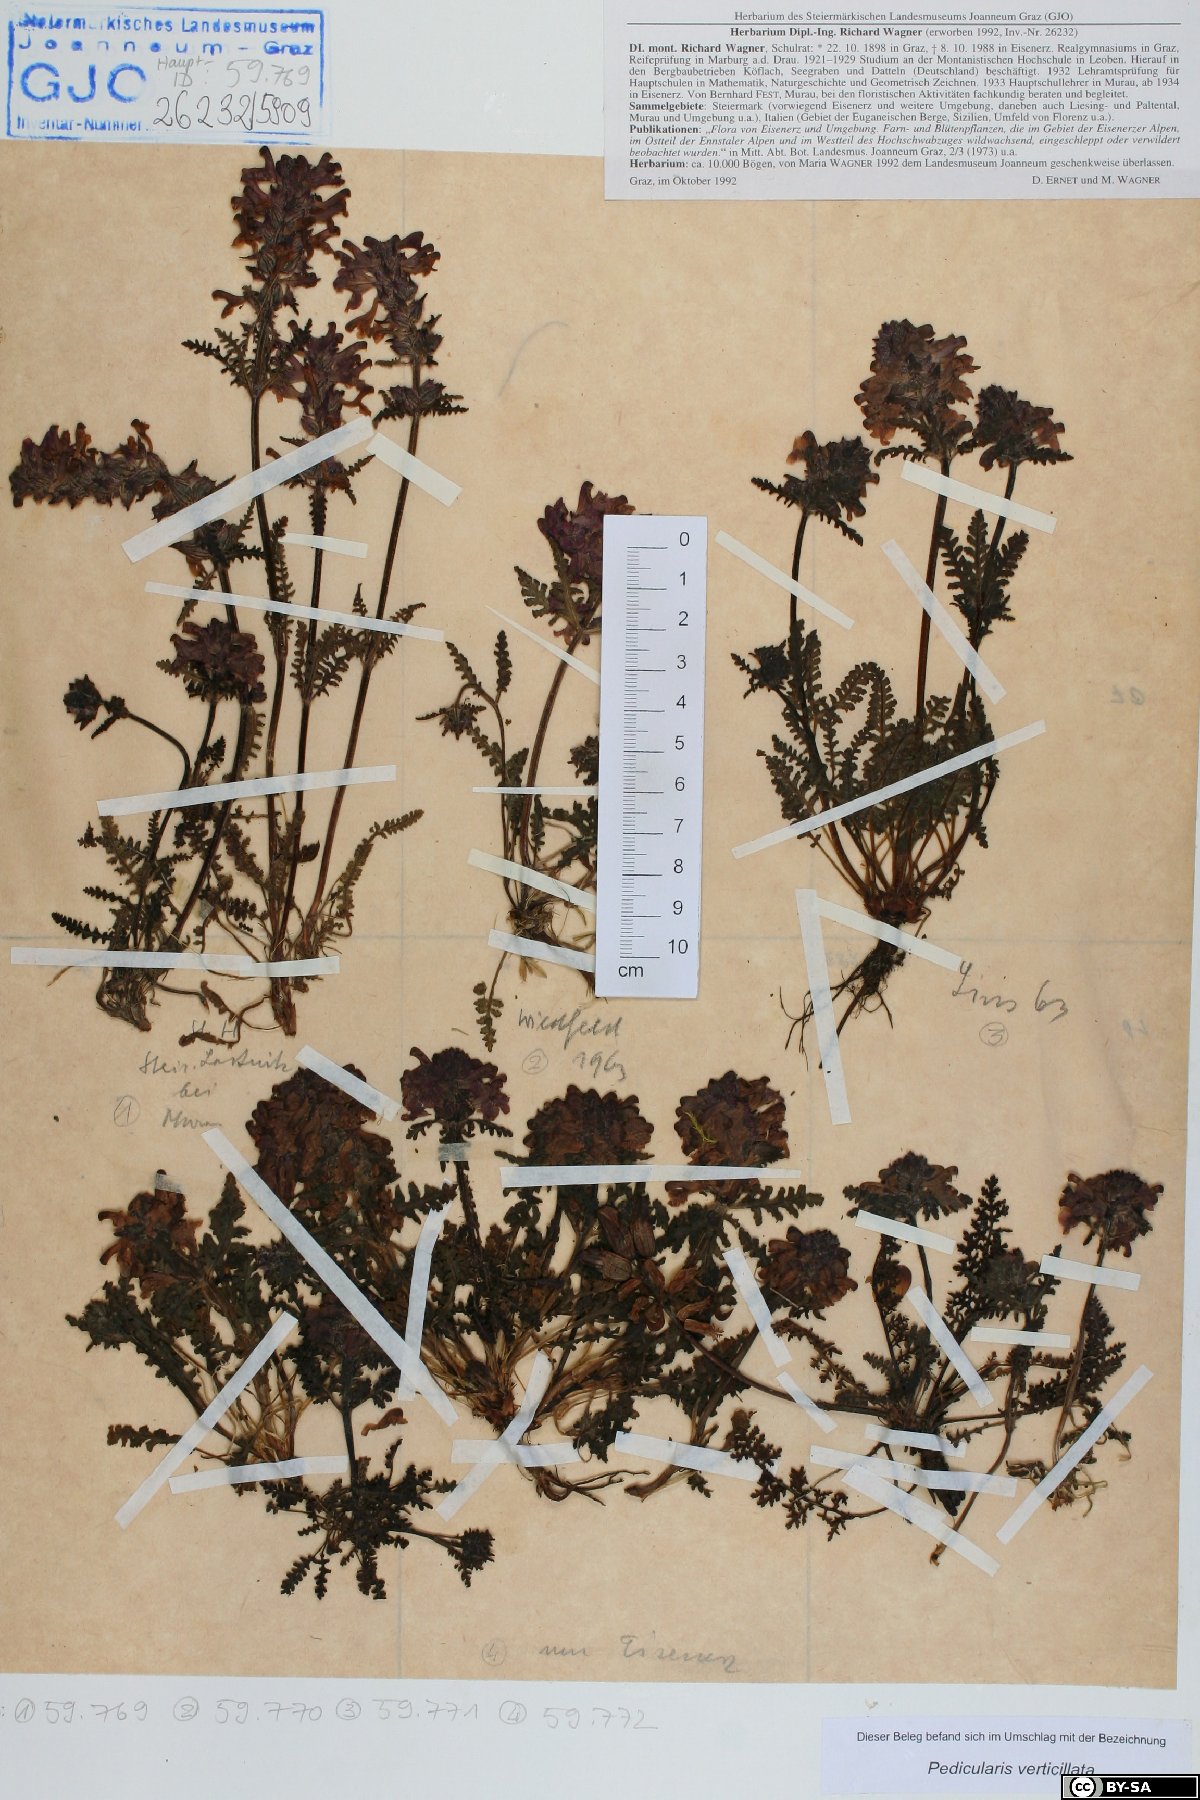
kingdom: Plantae
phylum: Tracheophyta
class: Magnoliopsida
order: Lamiales
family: Orobanchaceae
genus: Pedicularis
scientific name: Pedicularis verticillata
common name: Whorled lousewort
